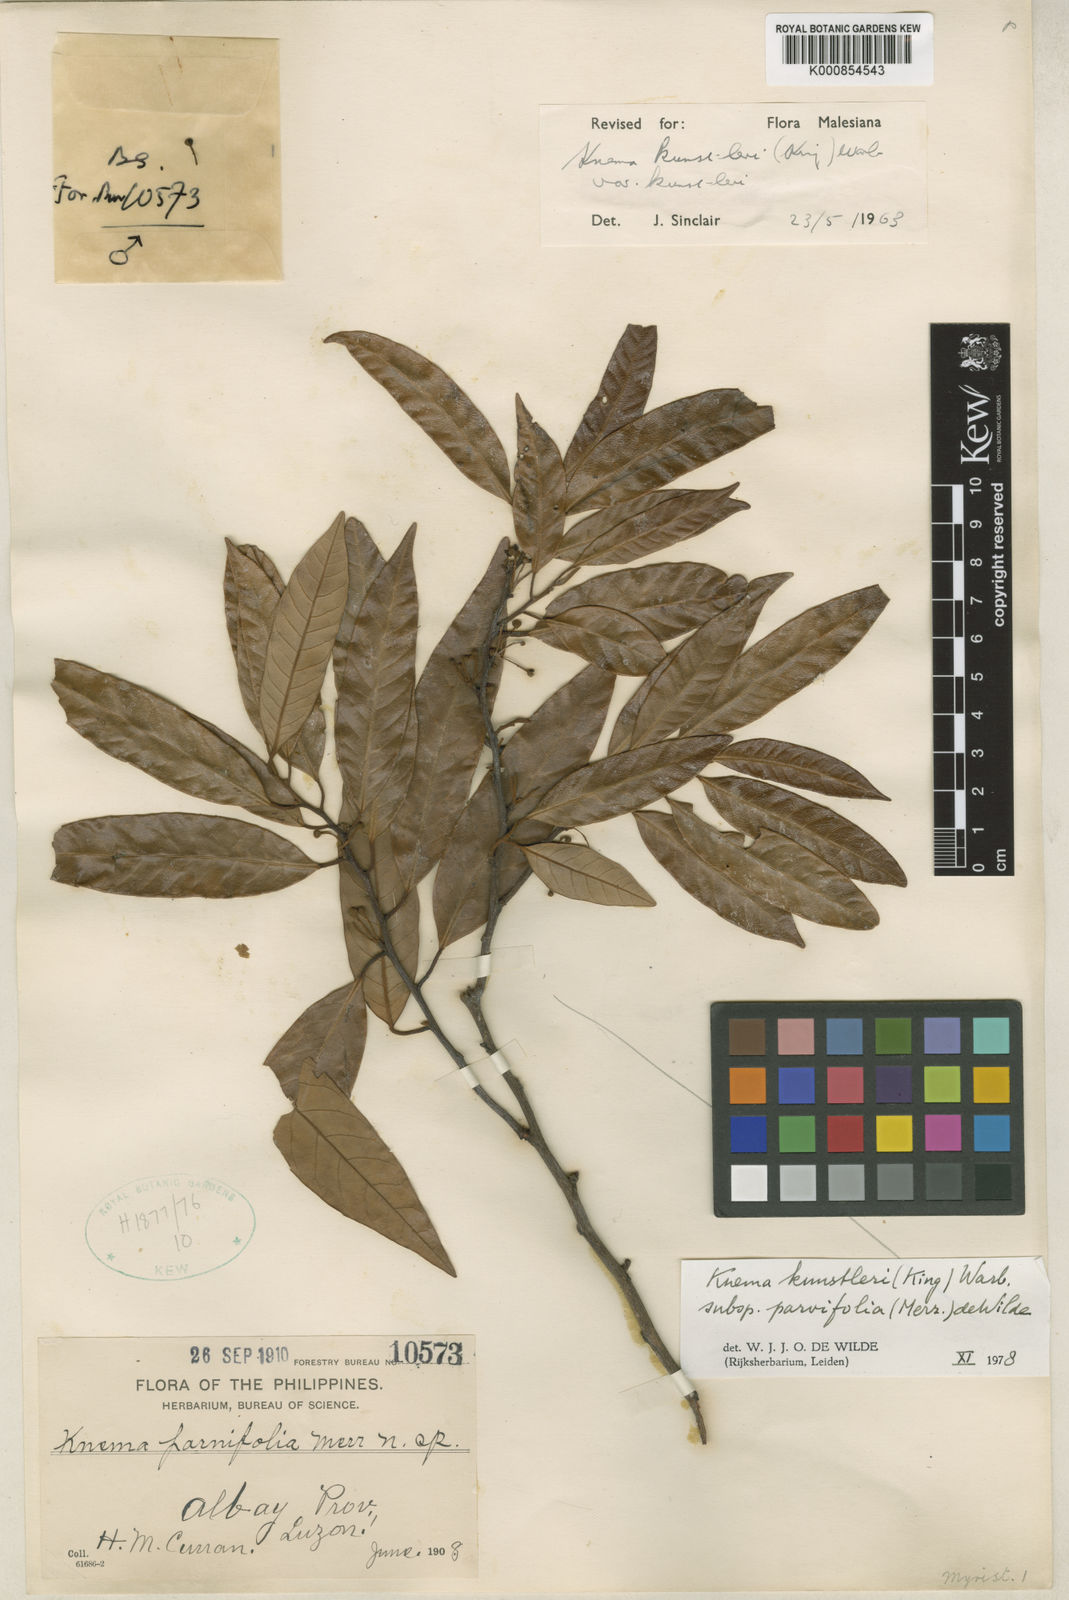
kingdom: Plantae
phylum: Tracheophyta
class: Magnoliopsida
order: Magnoliales
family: Myristicaceae
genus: Knema
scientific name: Knema kunstleri
